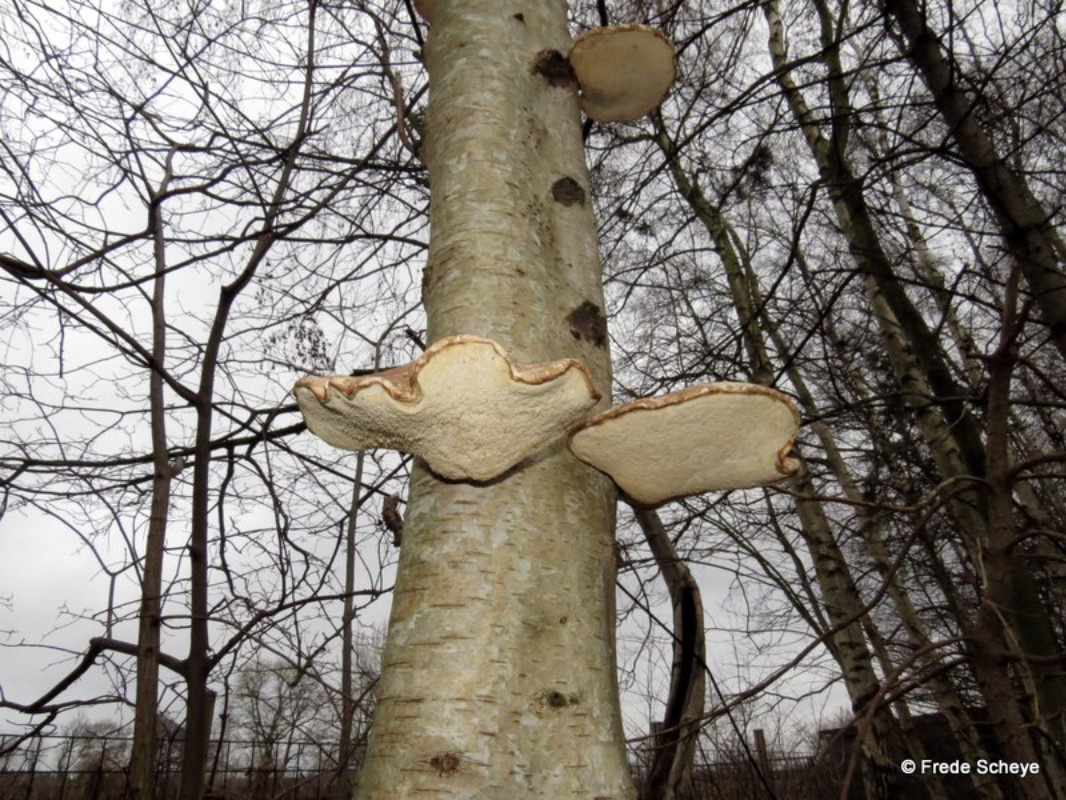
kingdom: Fungi
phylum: Basidiomycota
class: Agaricomycetes
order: Polyporales
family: Fomitopsidaceae
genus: Fomitopsis
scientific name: Fomitopsis betulina
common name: birkeporesvamp
